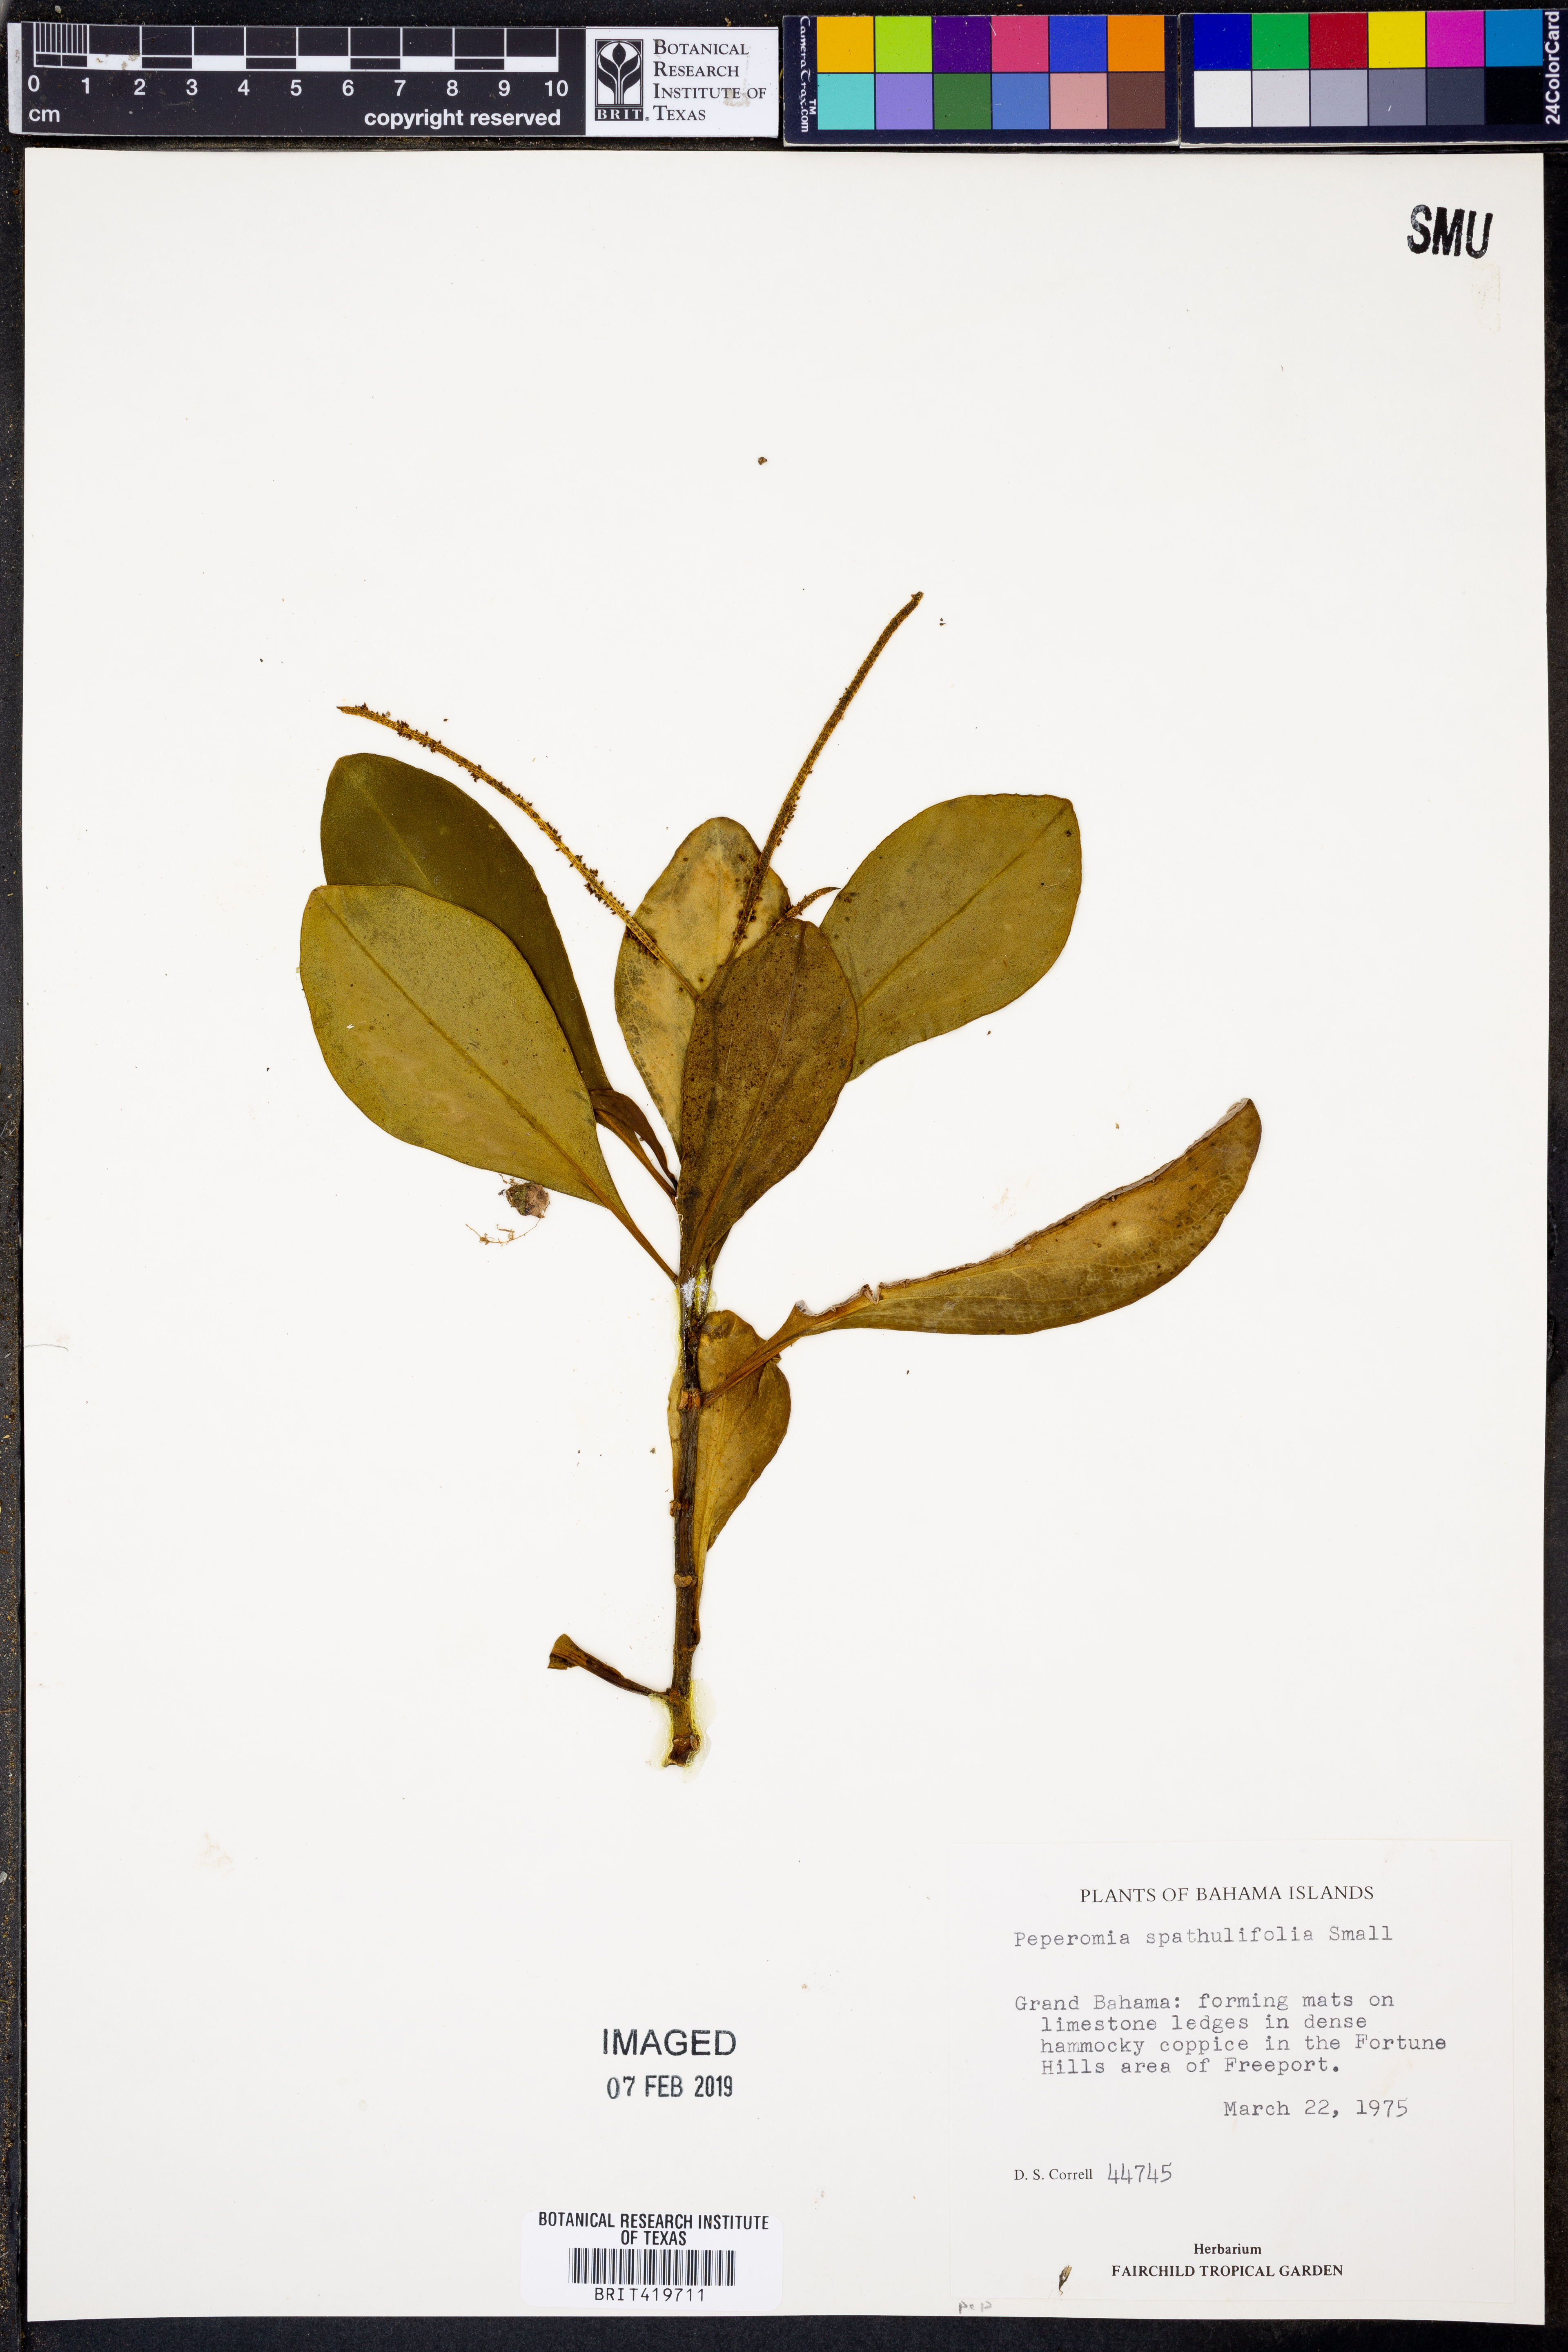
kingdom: Plantae
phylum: Tracheophyta
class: Magnoliopsida
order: Piperales
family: Piperaceae
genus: Peperomia
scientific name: Peperomia obtusifolia
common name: Baby rubberplant
